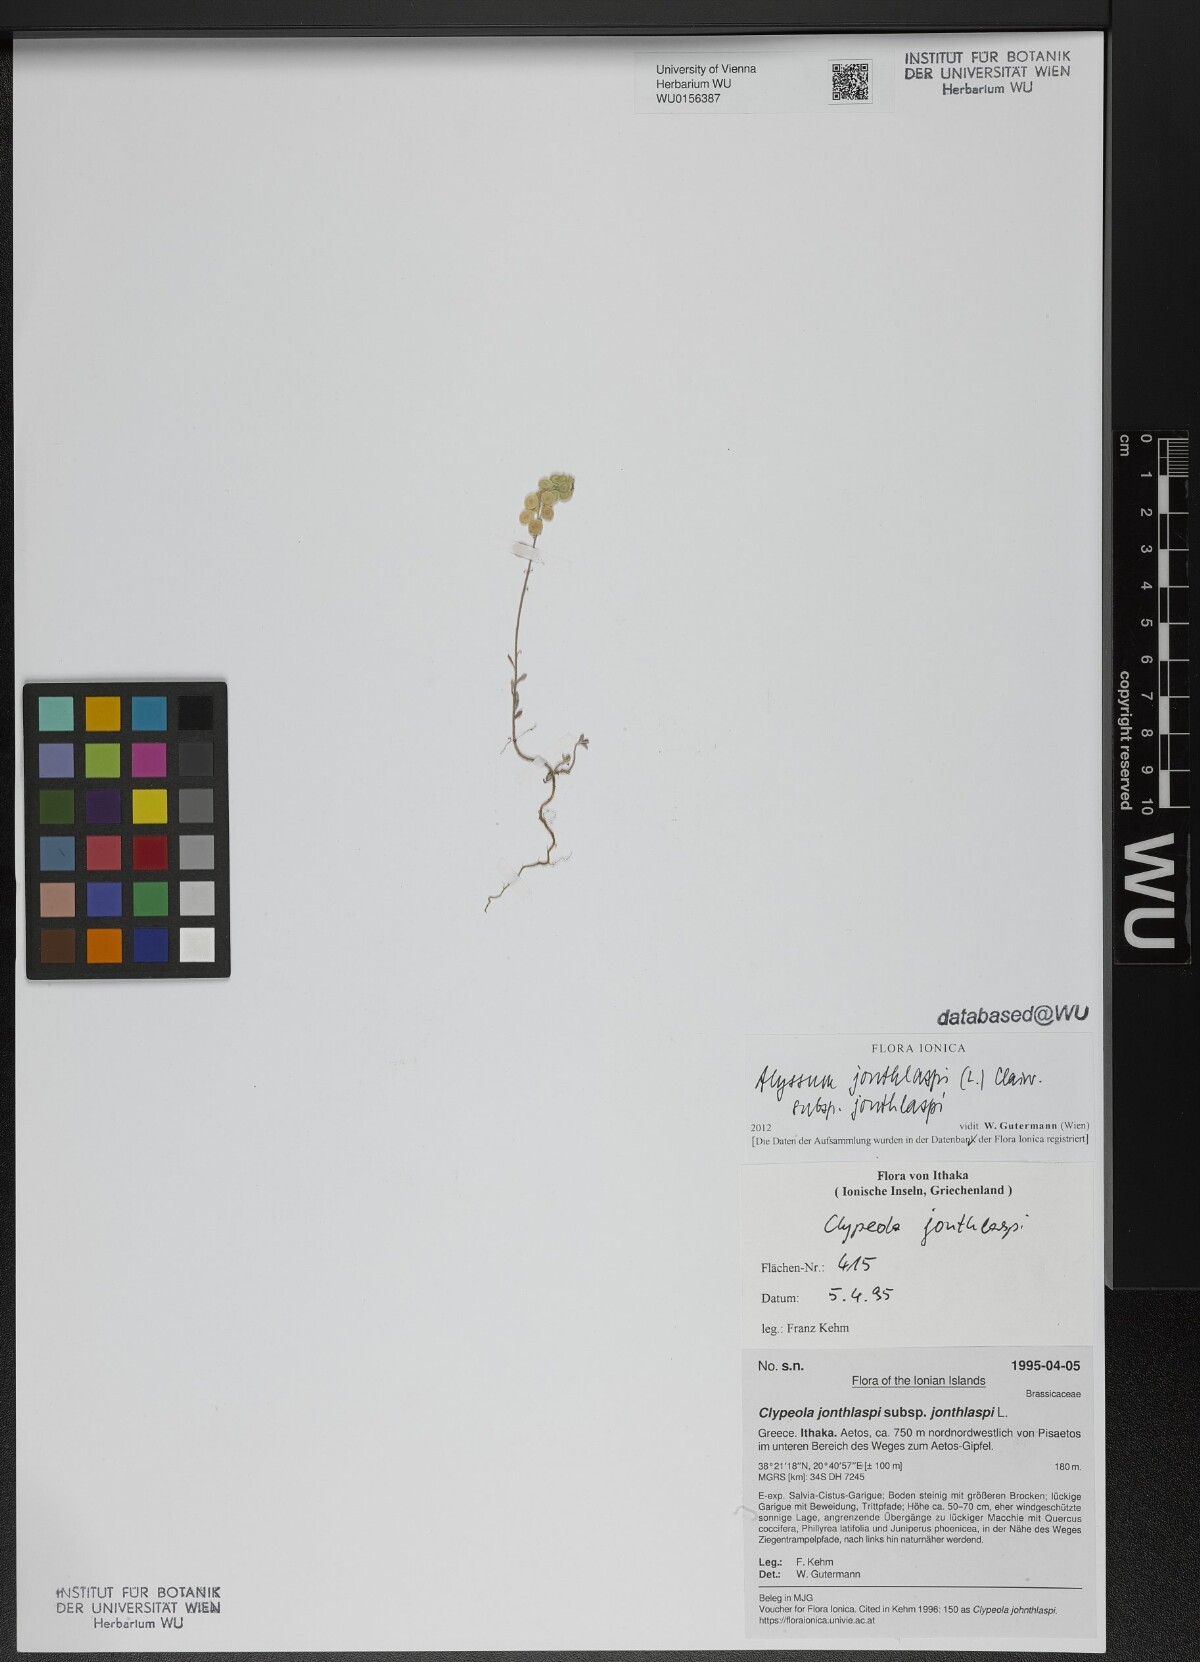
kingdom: Plantae
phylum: Tracheophyta
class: Magnoliopsida
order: Brassicales
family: Brassicaceae
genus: Clypeola
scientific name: Clypeola jonthlaspi
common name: Disk cress
